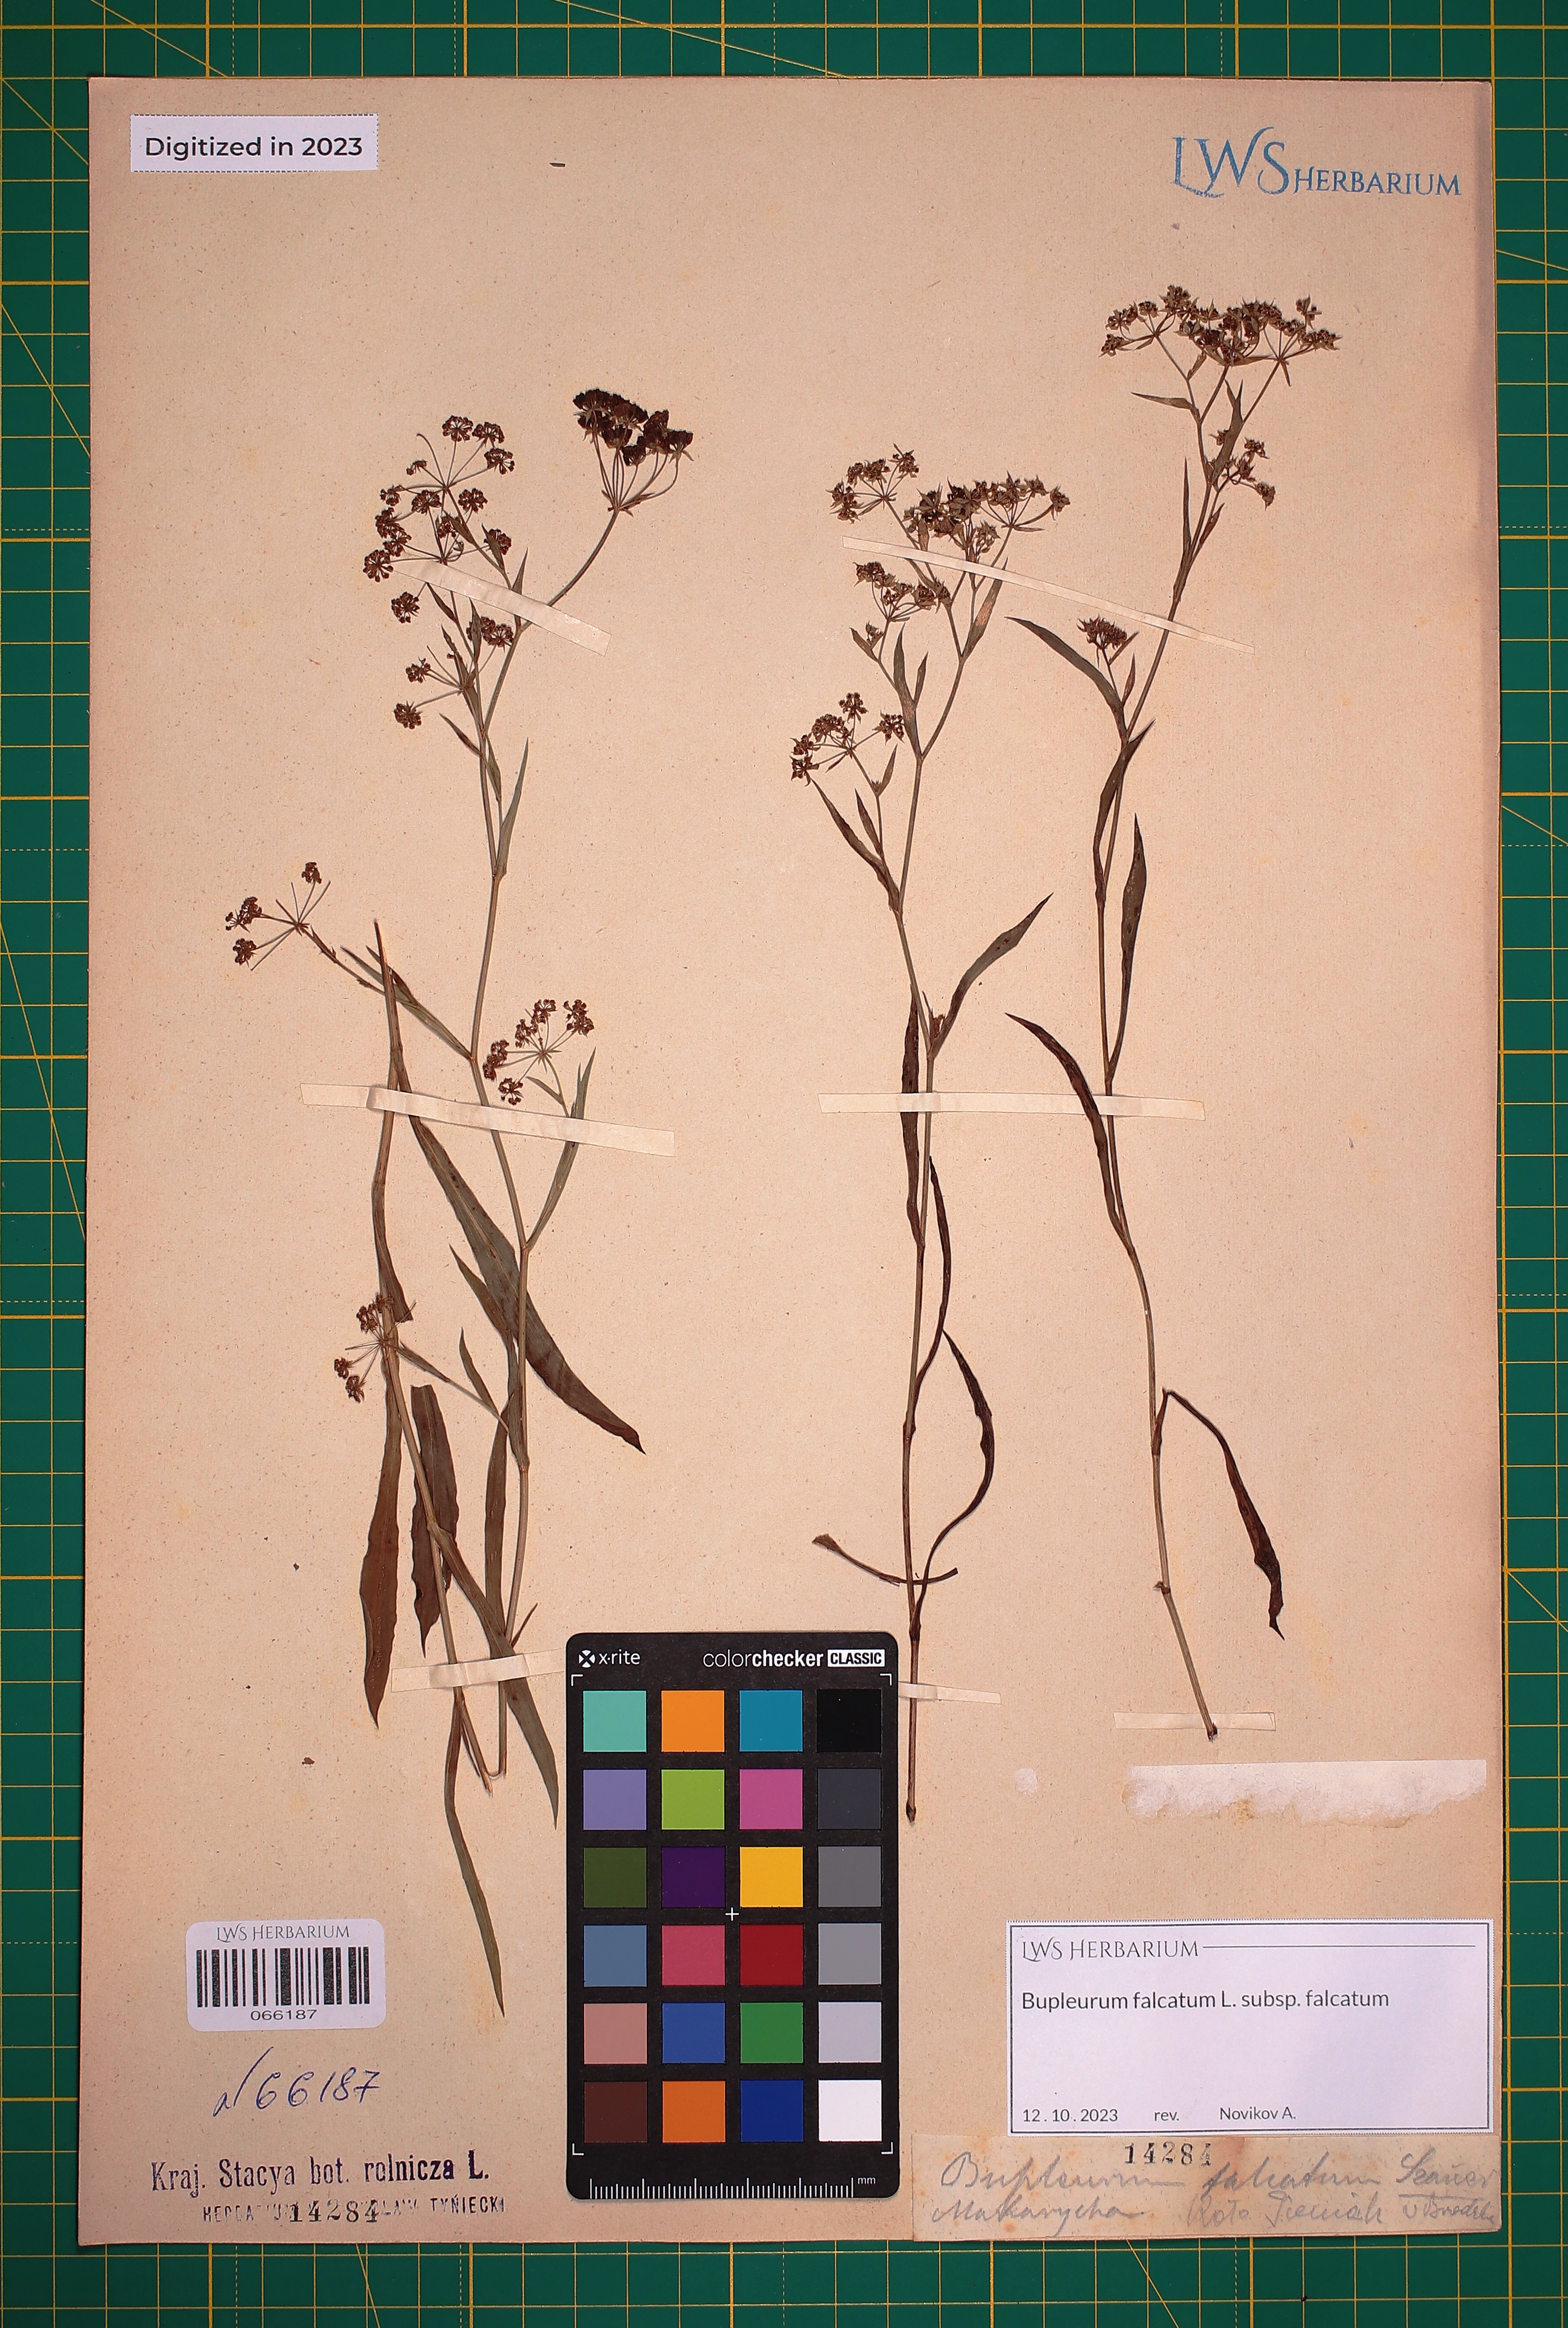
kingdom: Plantae
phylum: Tracheophyta
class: Magnoliopsida
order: Apiales
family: Apiaceae
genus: Bupleurum
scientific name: Bupleurum falcatum
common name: Sickle-leaved hare's-ear
